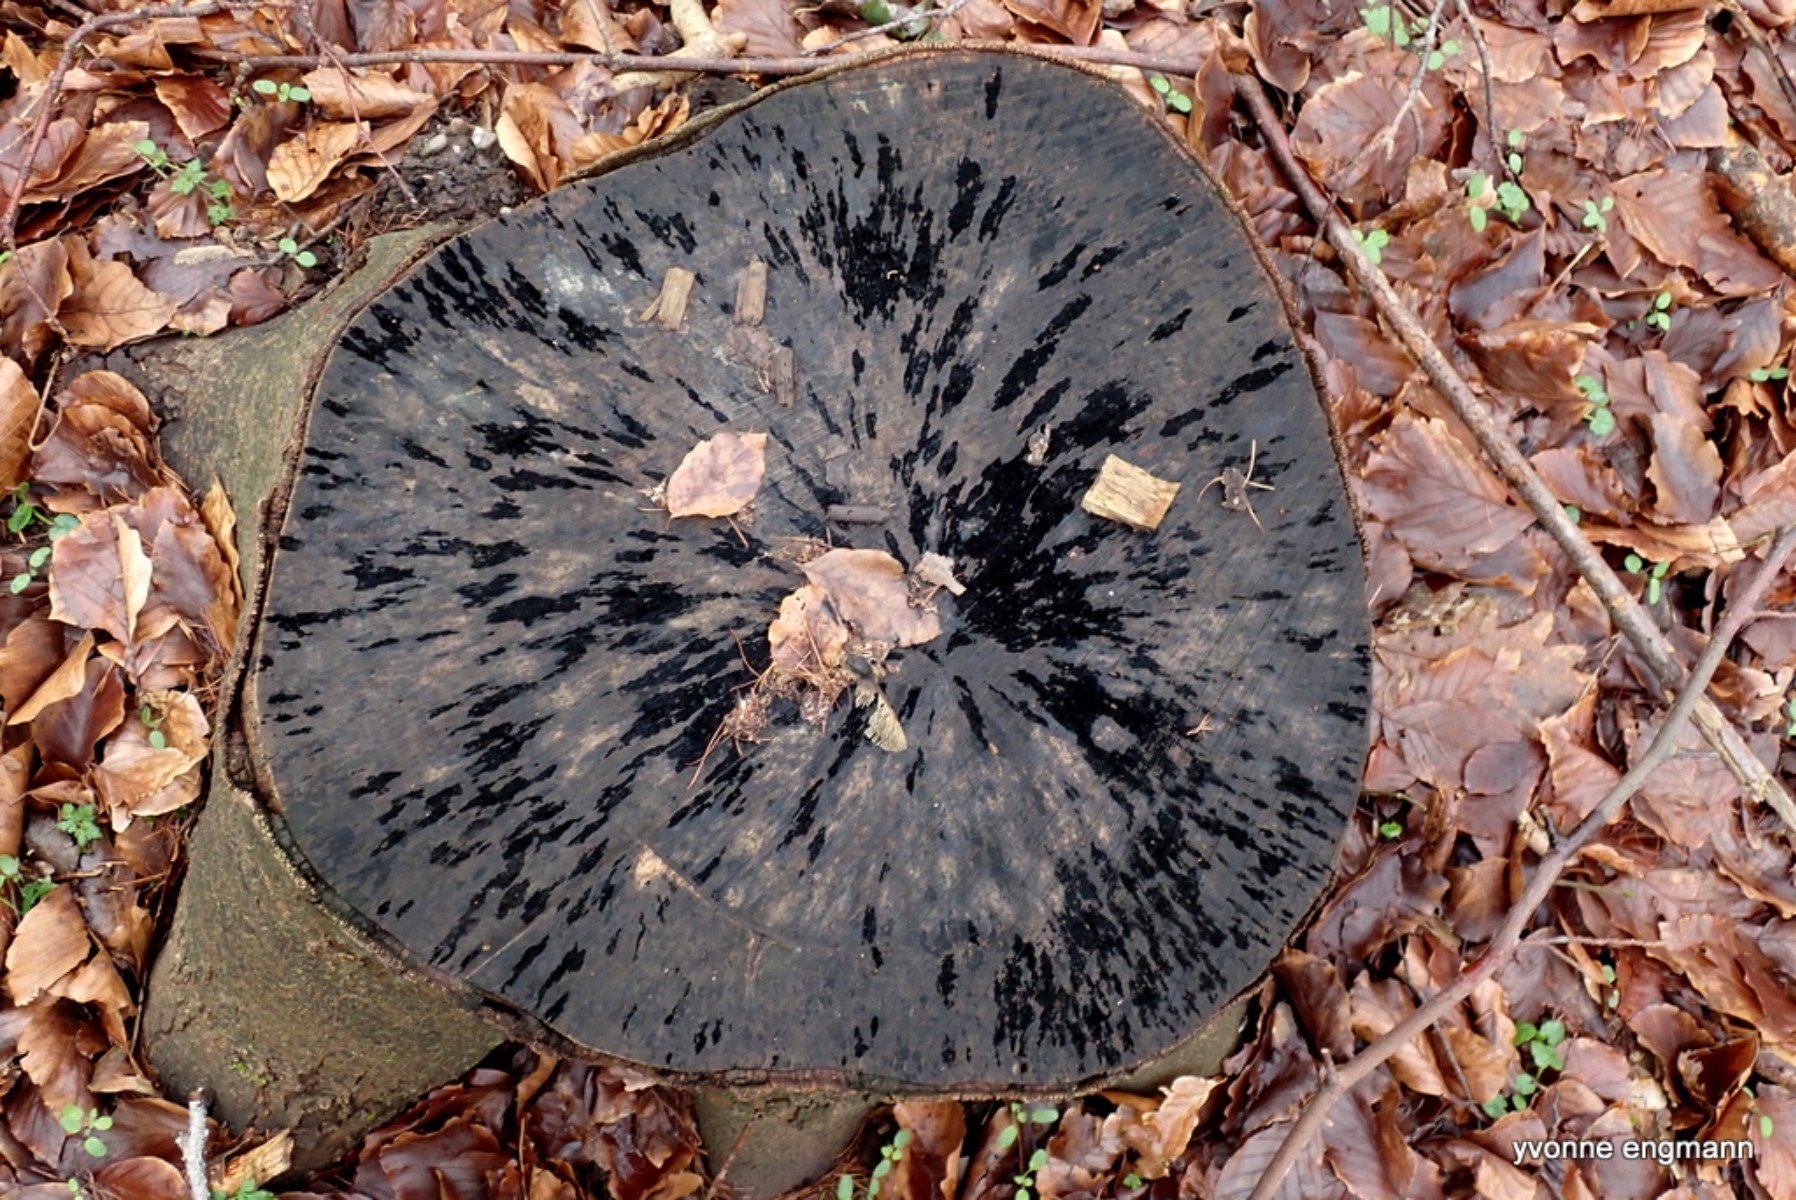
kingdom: Fungi
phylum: Ascomycota
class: Leotiomycetes
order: Helotiales
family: Helotiaceae
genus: Bispora
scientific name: Bispora pallescens
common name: måtte-snitskive
